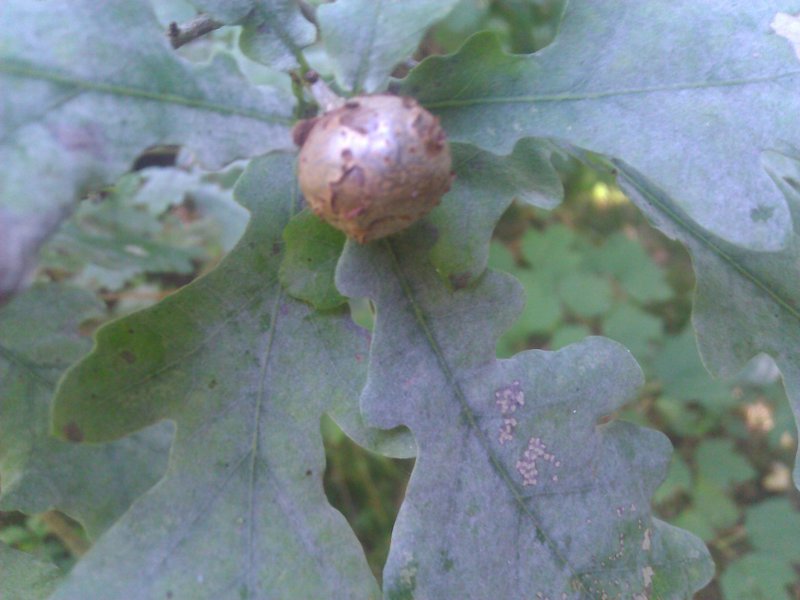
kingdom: Animalia
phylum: Arthropoda
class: Insecta
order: Hymenoptera
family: Cynipidae
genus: Andricus
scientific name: Andricus lignicolus
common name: Cola-nut gall
